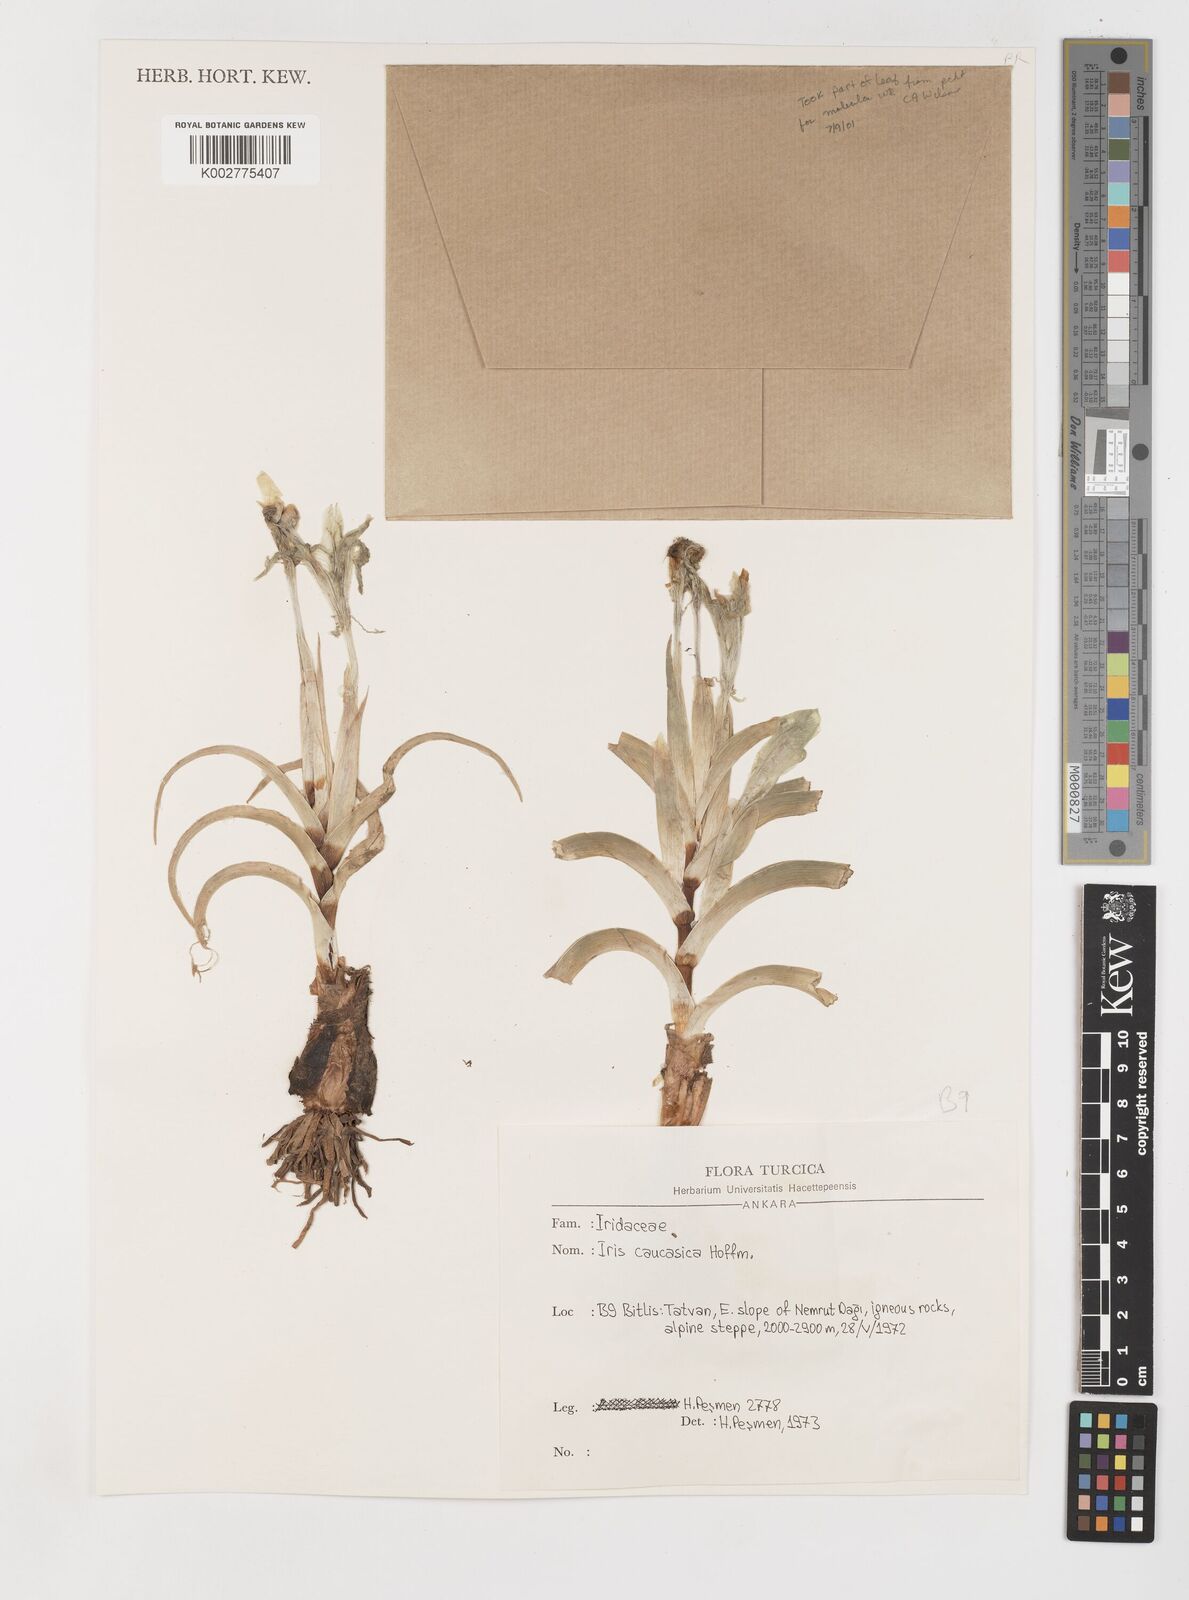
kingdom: Plantae
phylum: Tracheophyta
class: Liliopsida
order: Asparagales
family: Iridaceae
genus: Iris
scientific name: Iris caucasica
